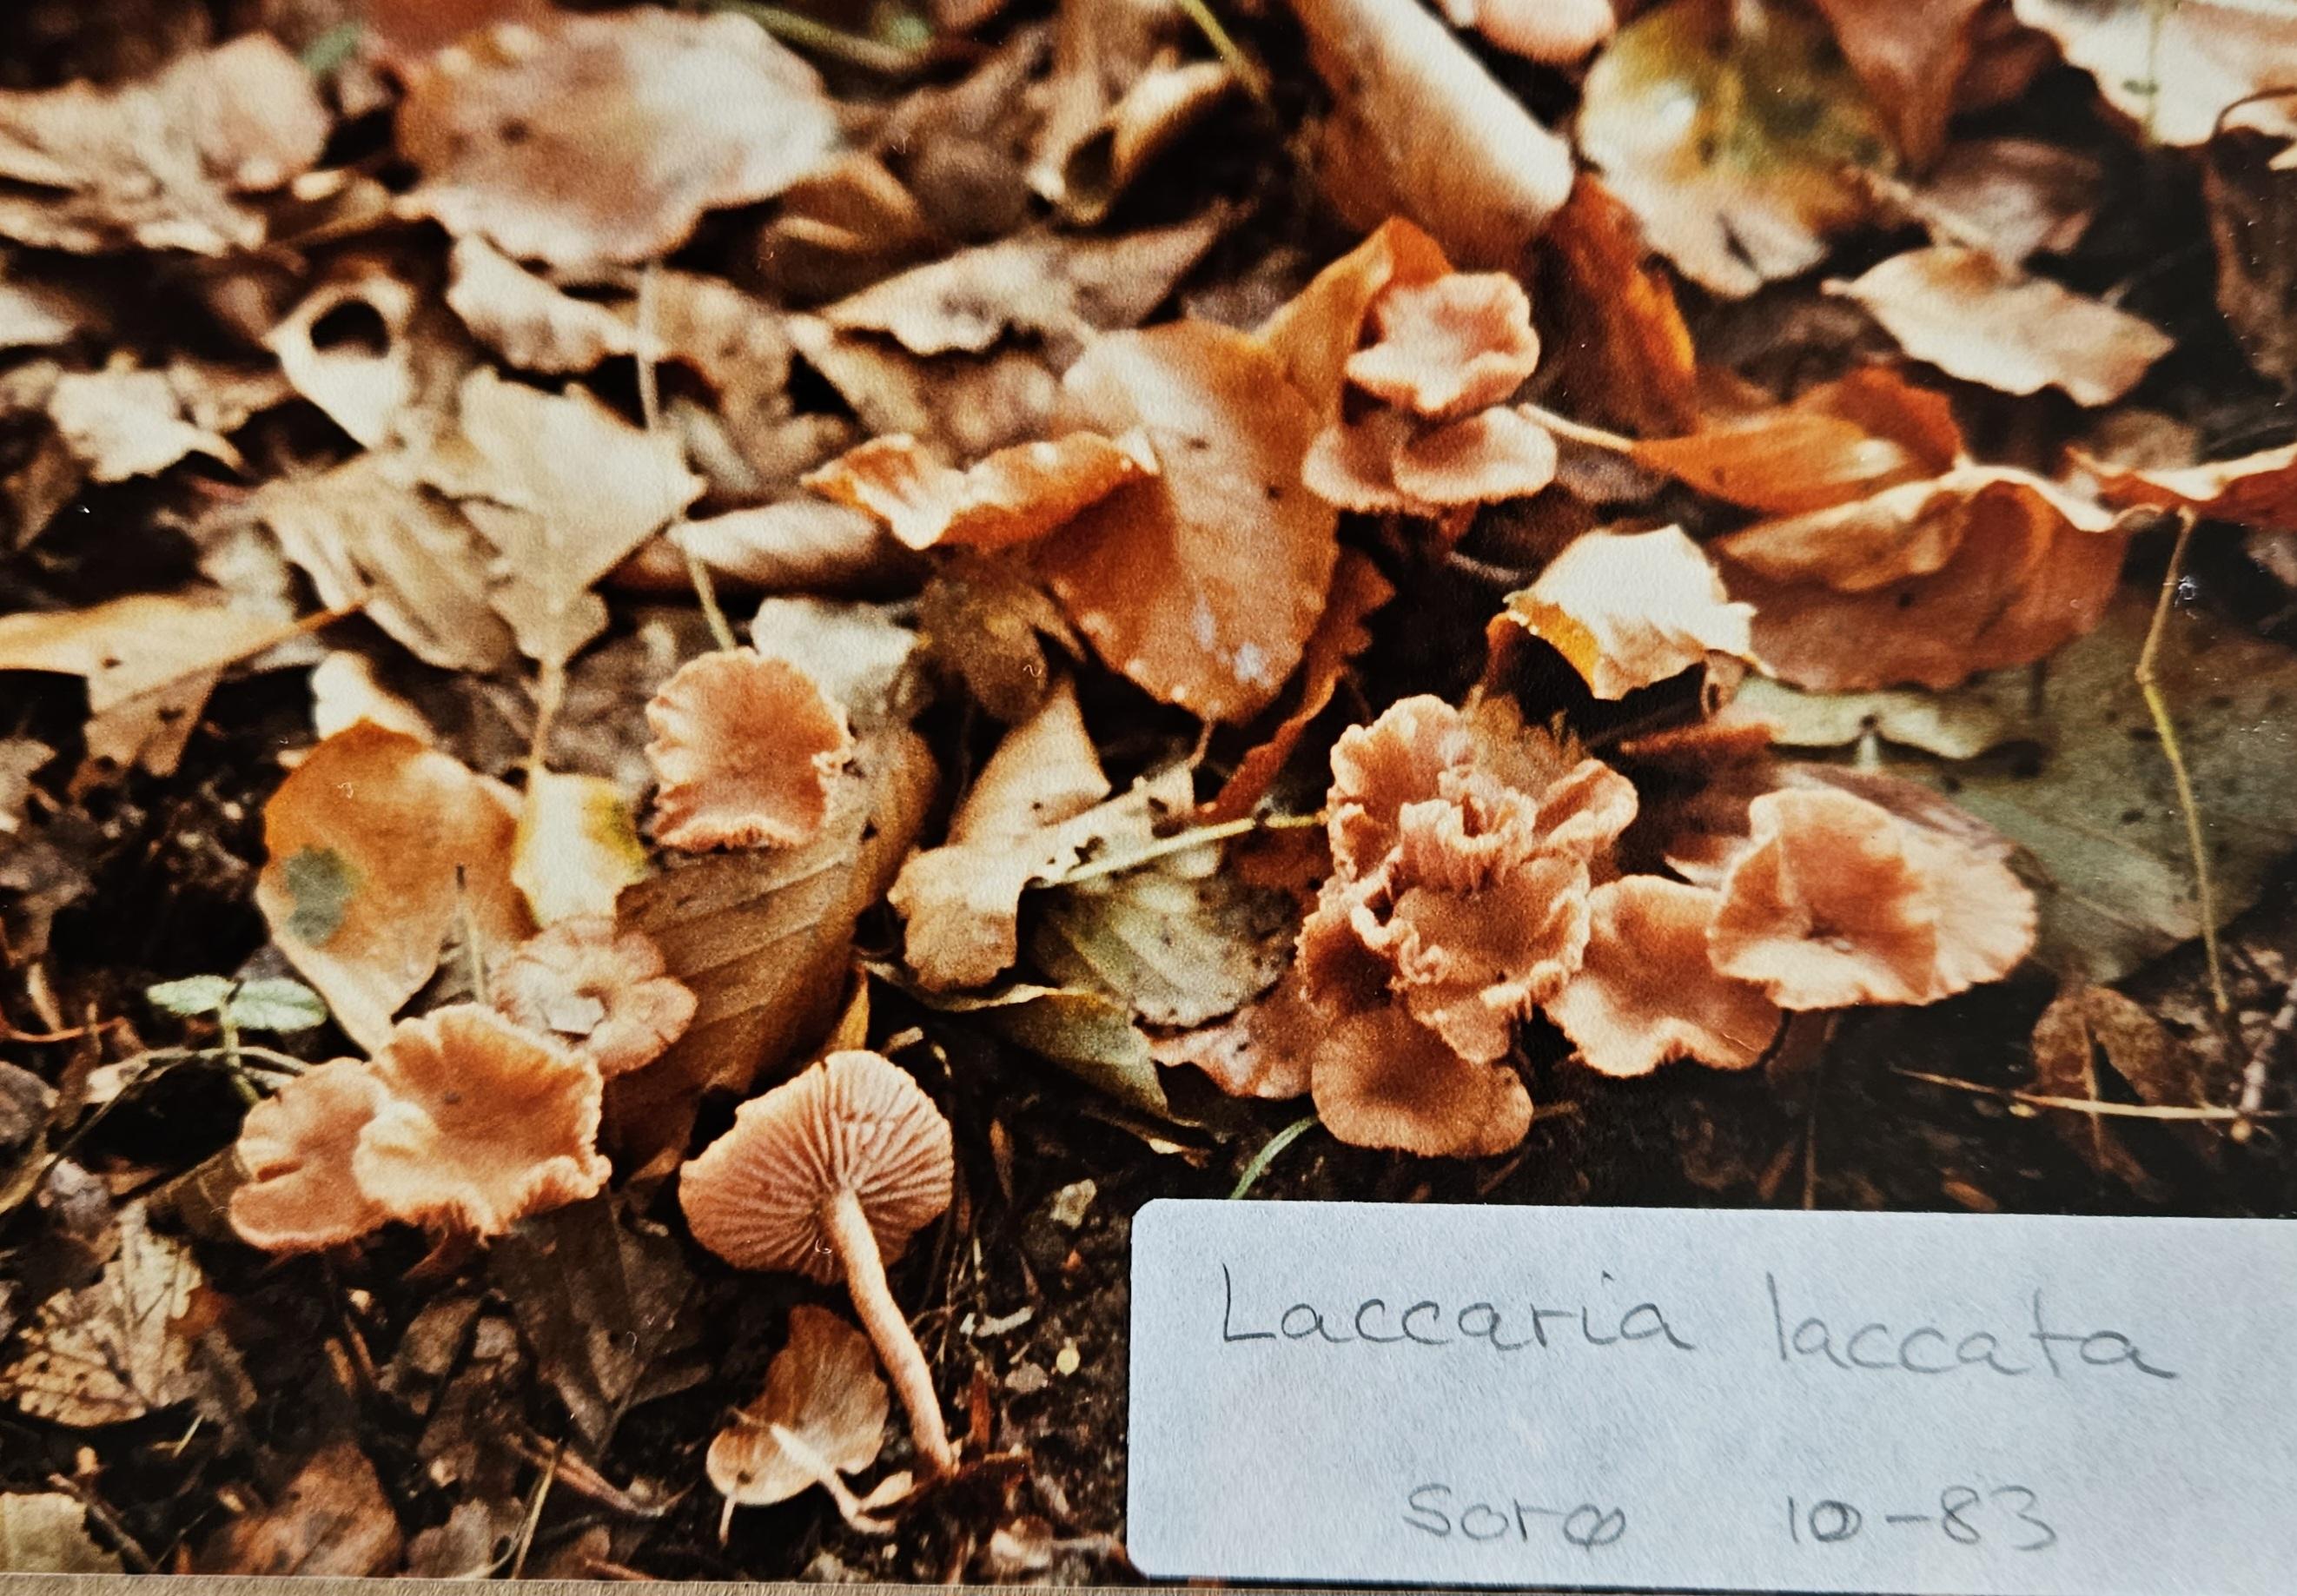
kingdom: Fungi
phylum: Basidiomycota
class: Agaricomycetes
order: Agaricales
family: Hydnangiaceae
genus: Laccaria
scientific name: Laccaria laccata
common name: rød ametysthat
